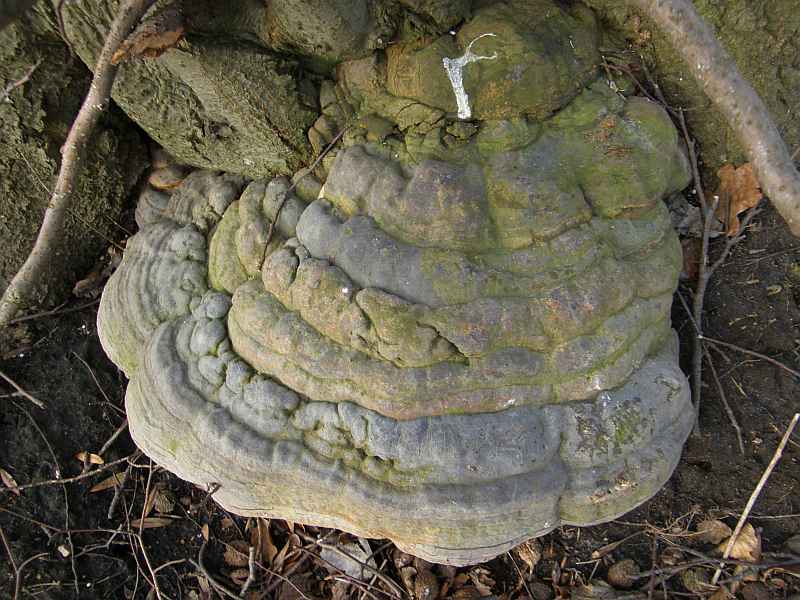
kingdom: Fungi
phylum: Basidiomycota
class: Agaricomycetes
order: Polyporales
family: Polyporaceae
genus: Ganoderma
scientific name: Ganoderma pfeifferi
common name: kobberrød lakporesvamp
